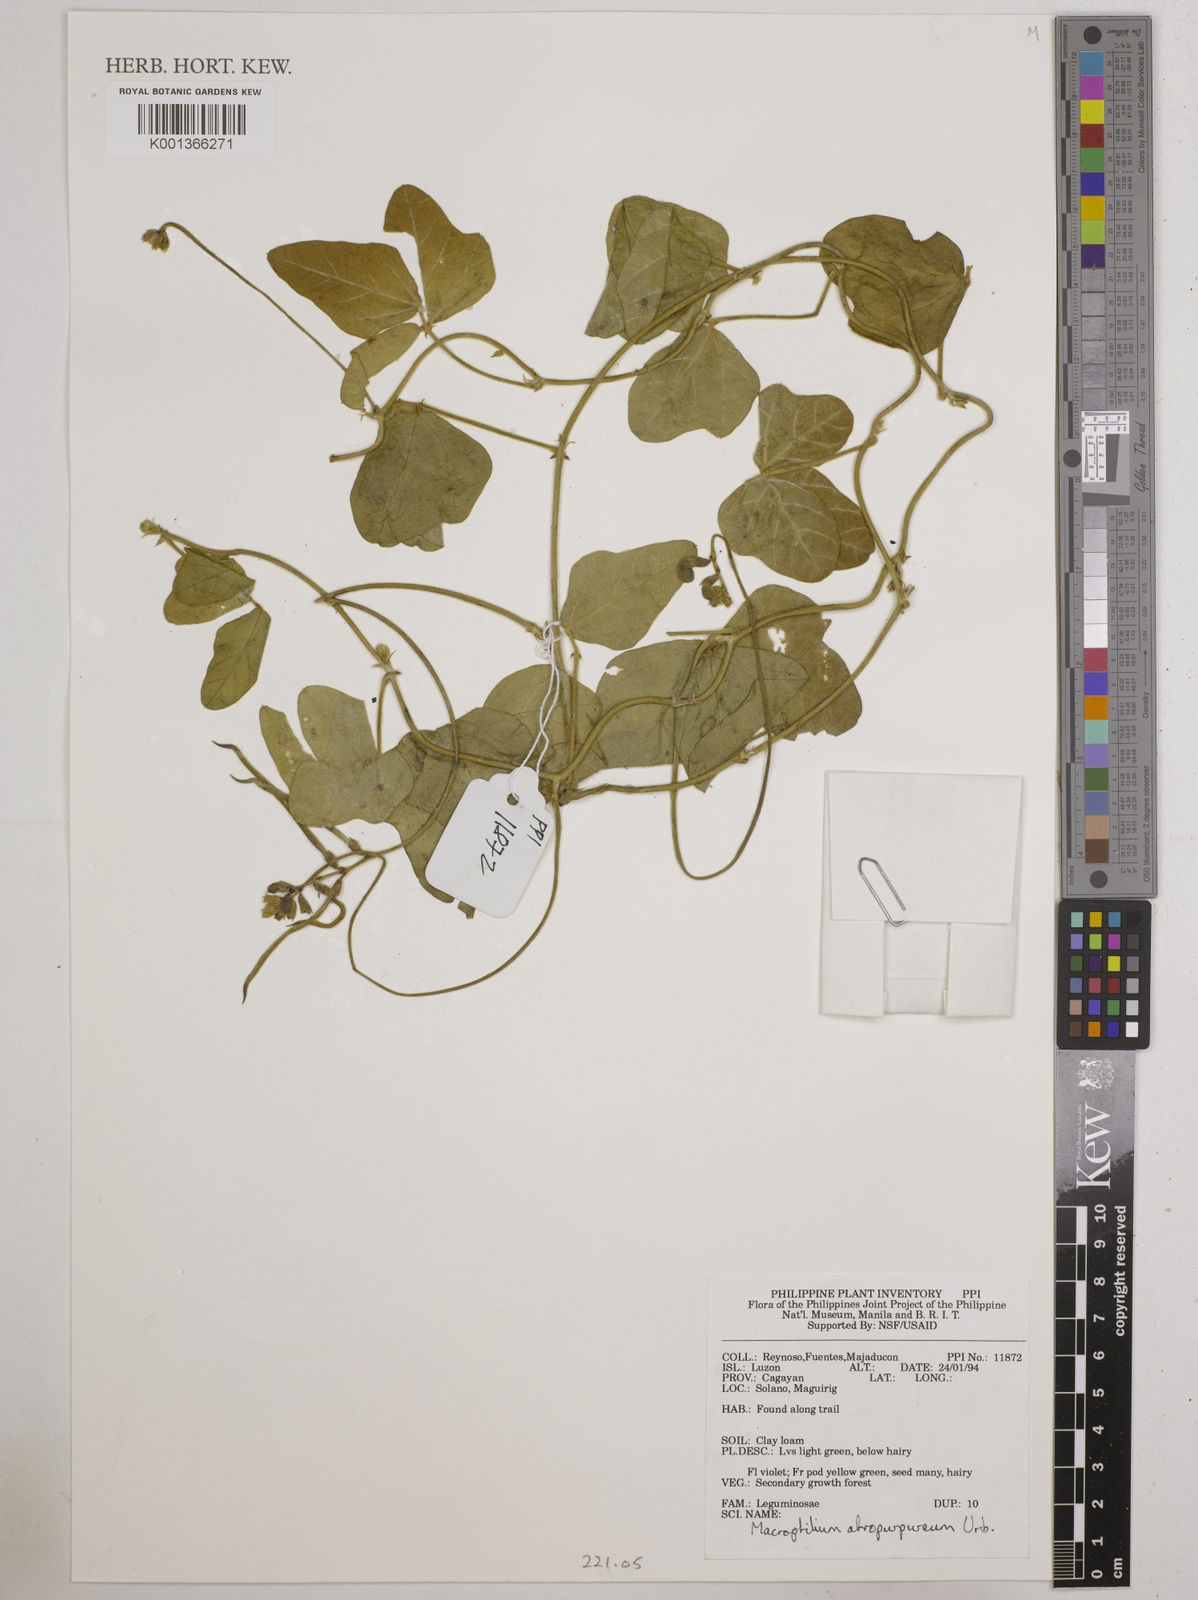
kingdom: Plantae
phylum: Tracheophyta
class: Magnoliopsida
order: Fabales
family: Fabaceae
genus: Macroptilium
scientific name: Macroptilium atropurpureum
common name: Purple bushbean
